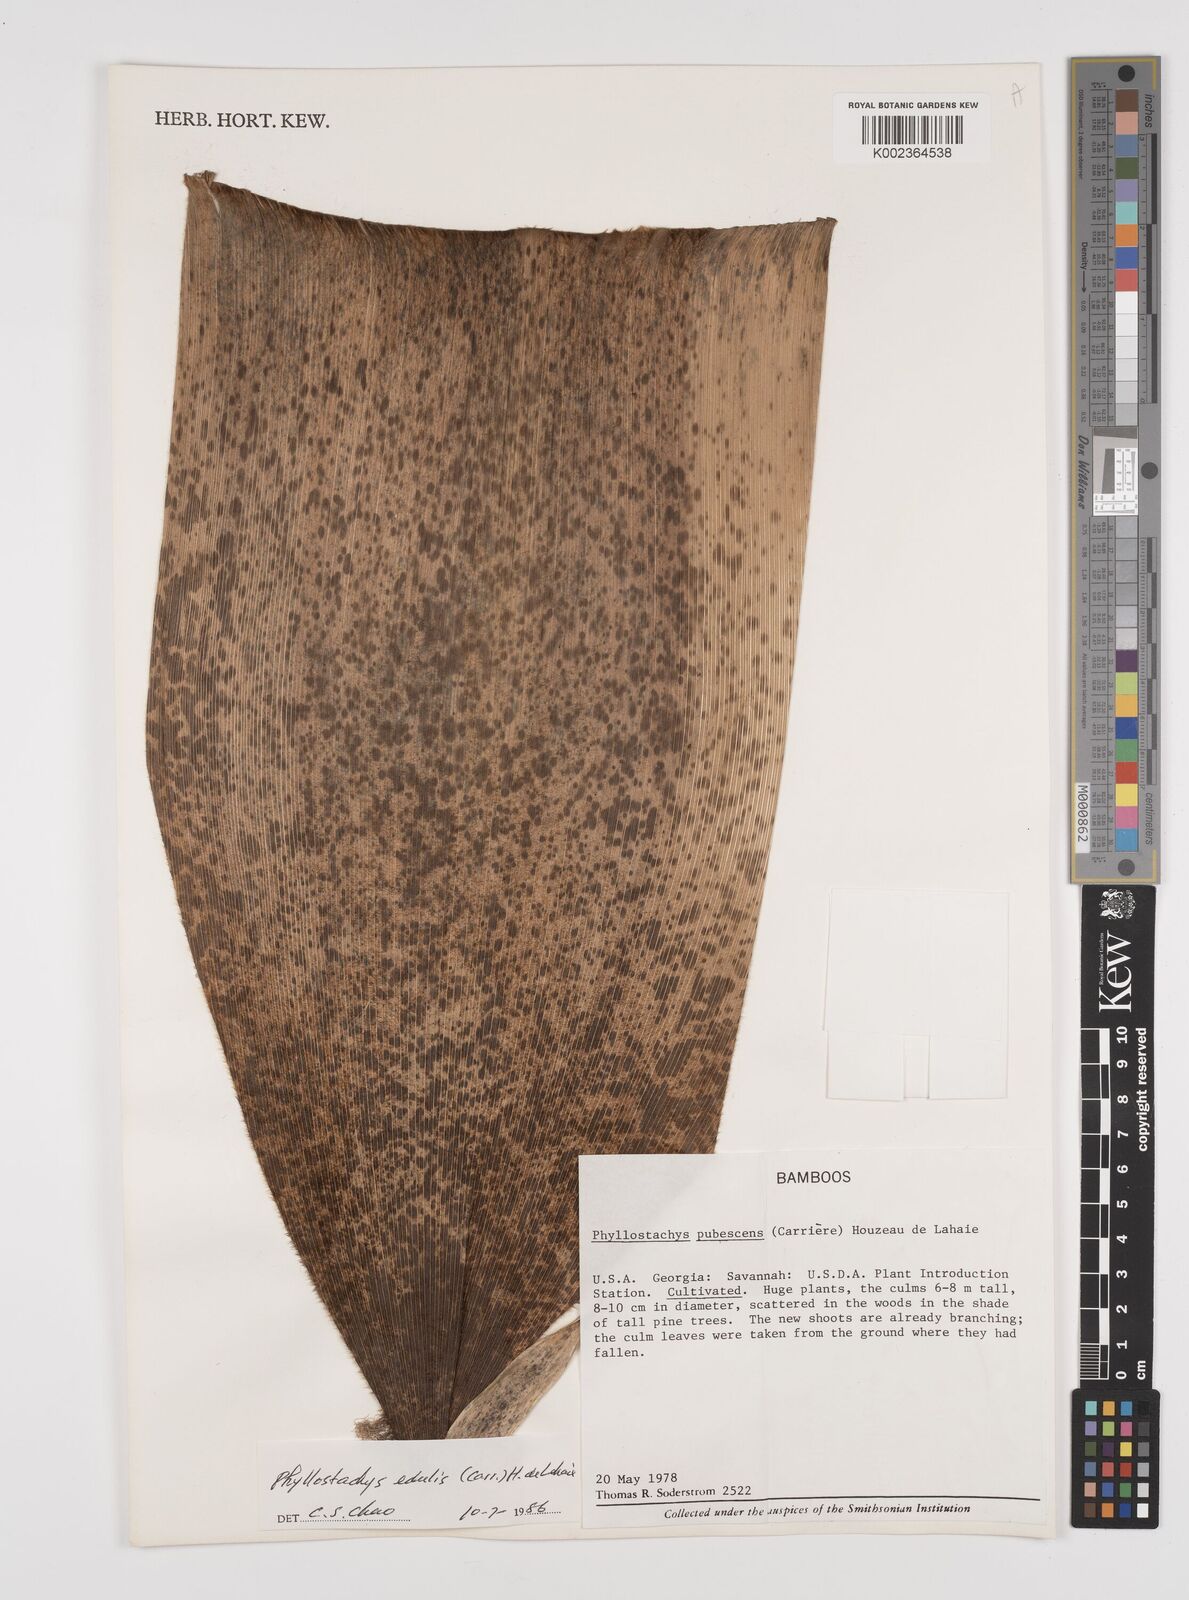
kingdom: Plantae
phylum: Tracheophyta
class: Liliopsida
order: Poales
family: Poaceae
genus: Phyllostachys
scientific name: Phyllostachys edulis
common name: Tortoise shell bamboo
